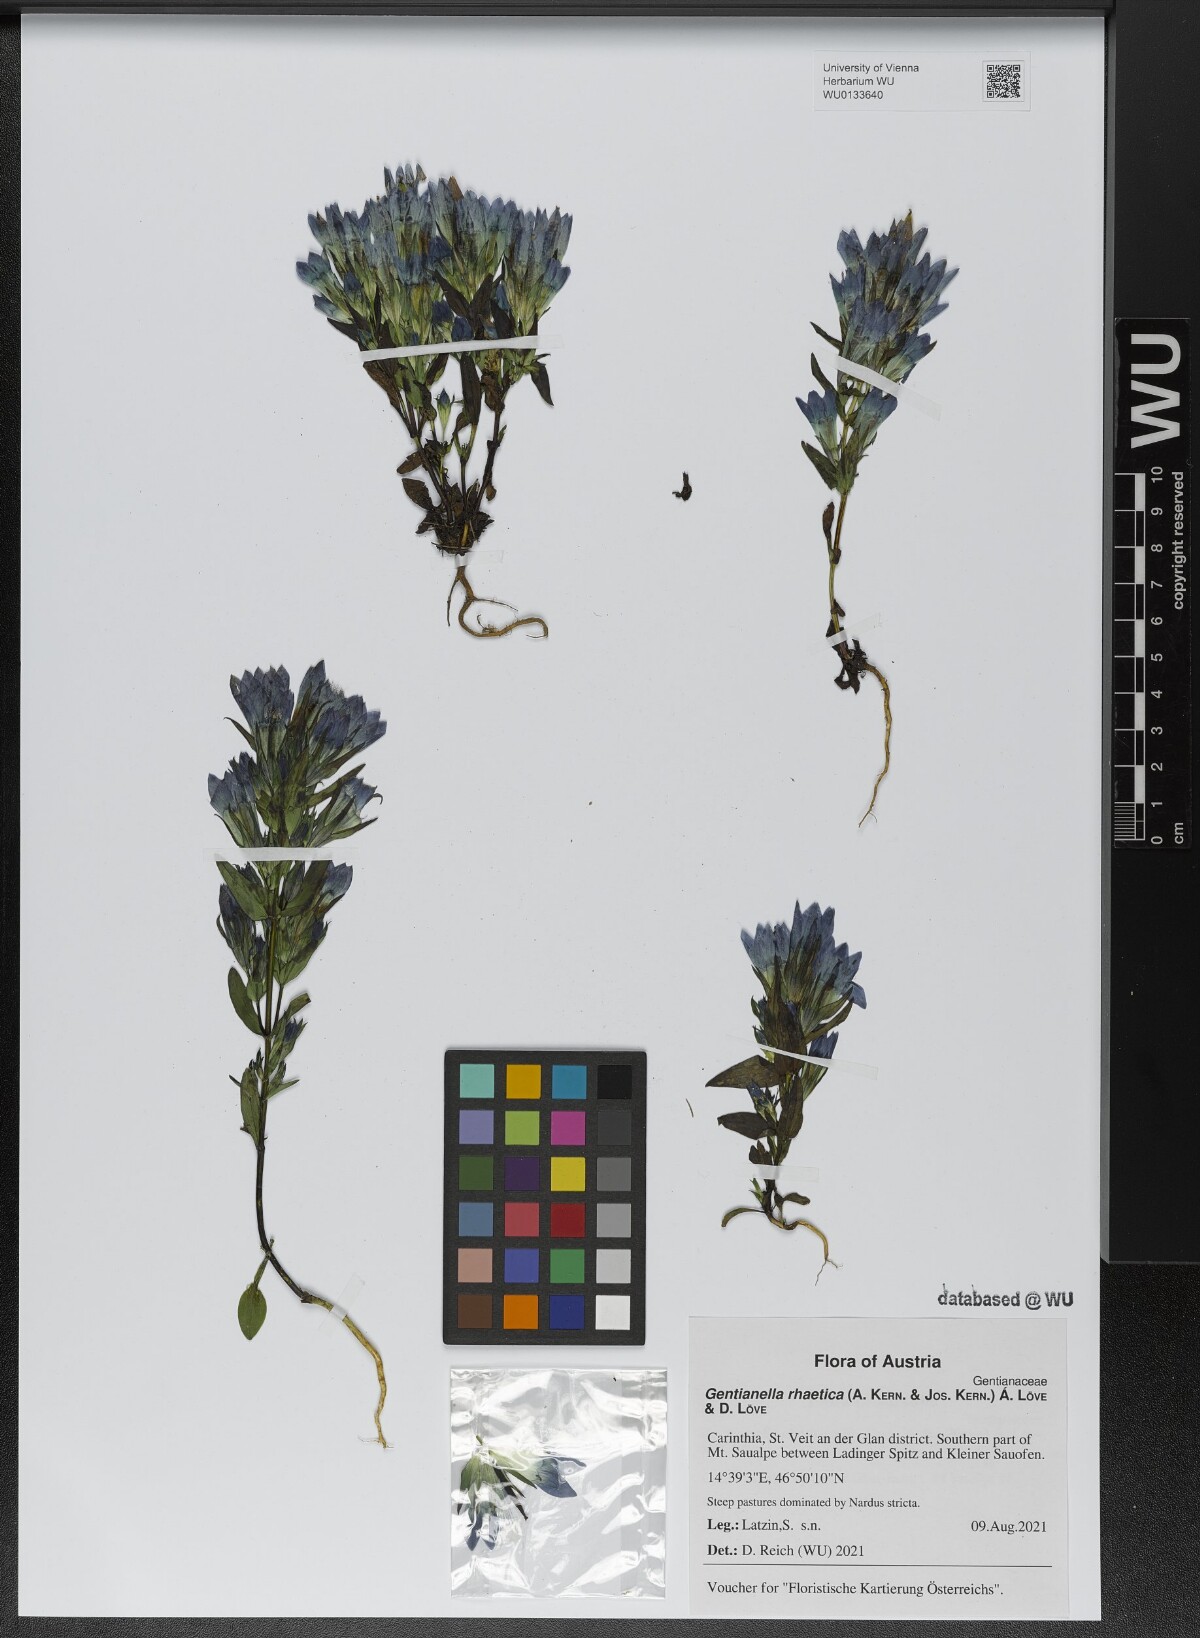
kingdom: Plantae
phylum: Tracheophyta
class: Magnoliopsida
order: Gentianales
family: Gentianaceae
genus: Gentianella
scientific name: Gentianella rhaetica
